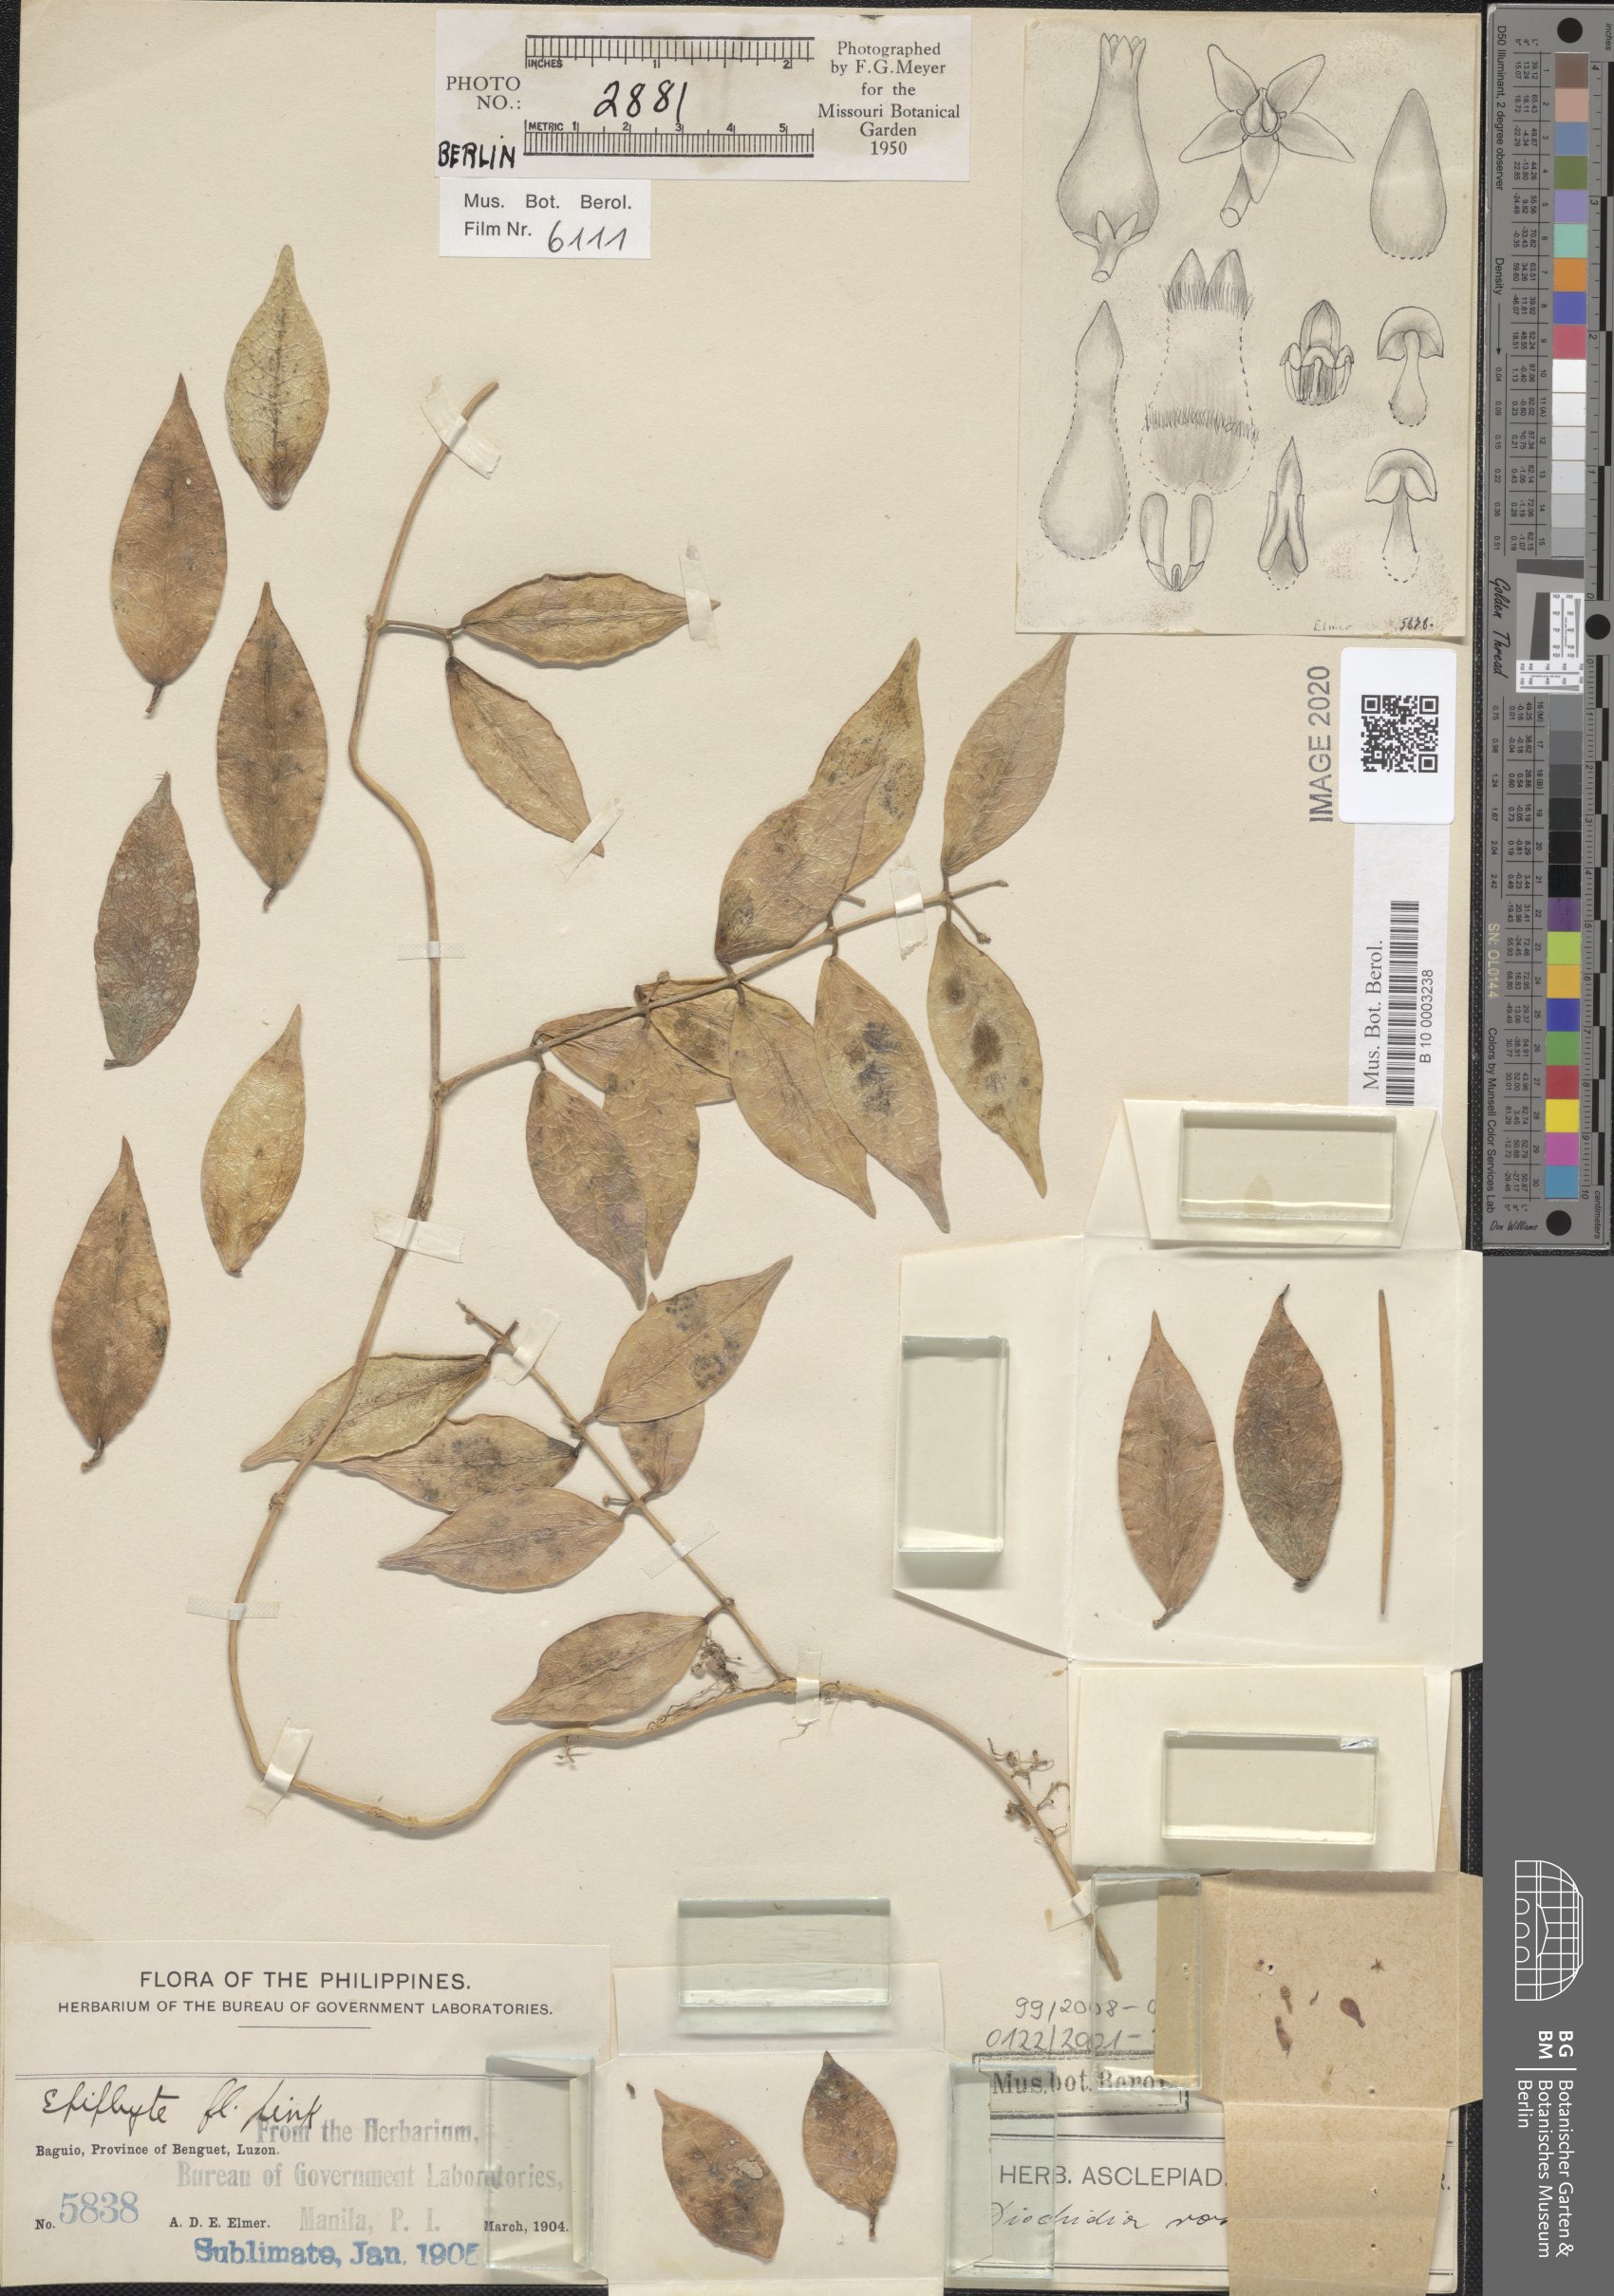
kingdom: Plantae
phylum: Tracheophyta
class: Magnoliopsida
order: Gentianales
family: Apocynaceae
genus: Dischidia
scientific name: Dischidia rosea
